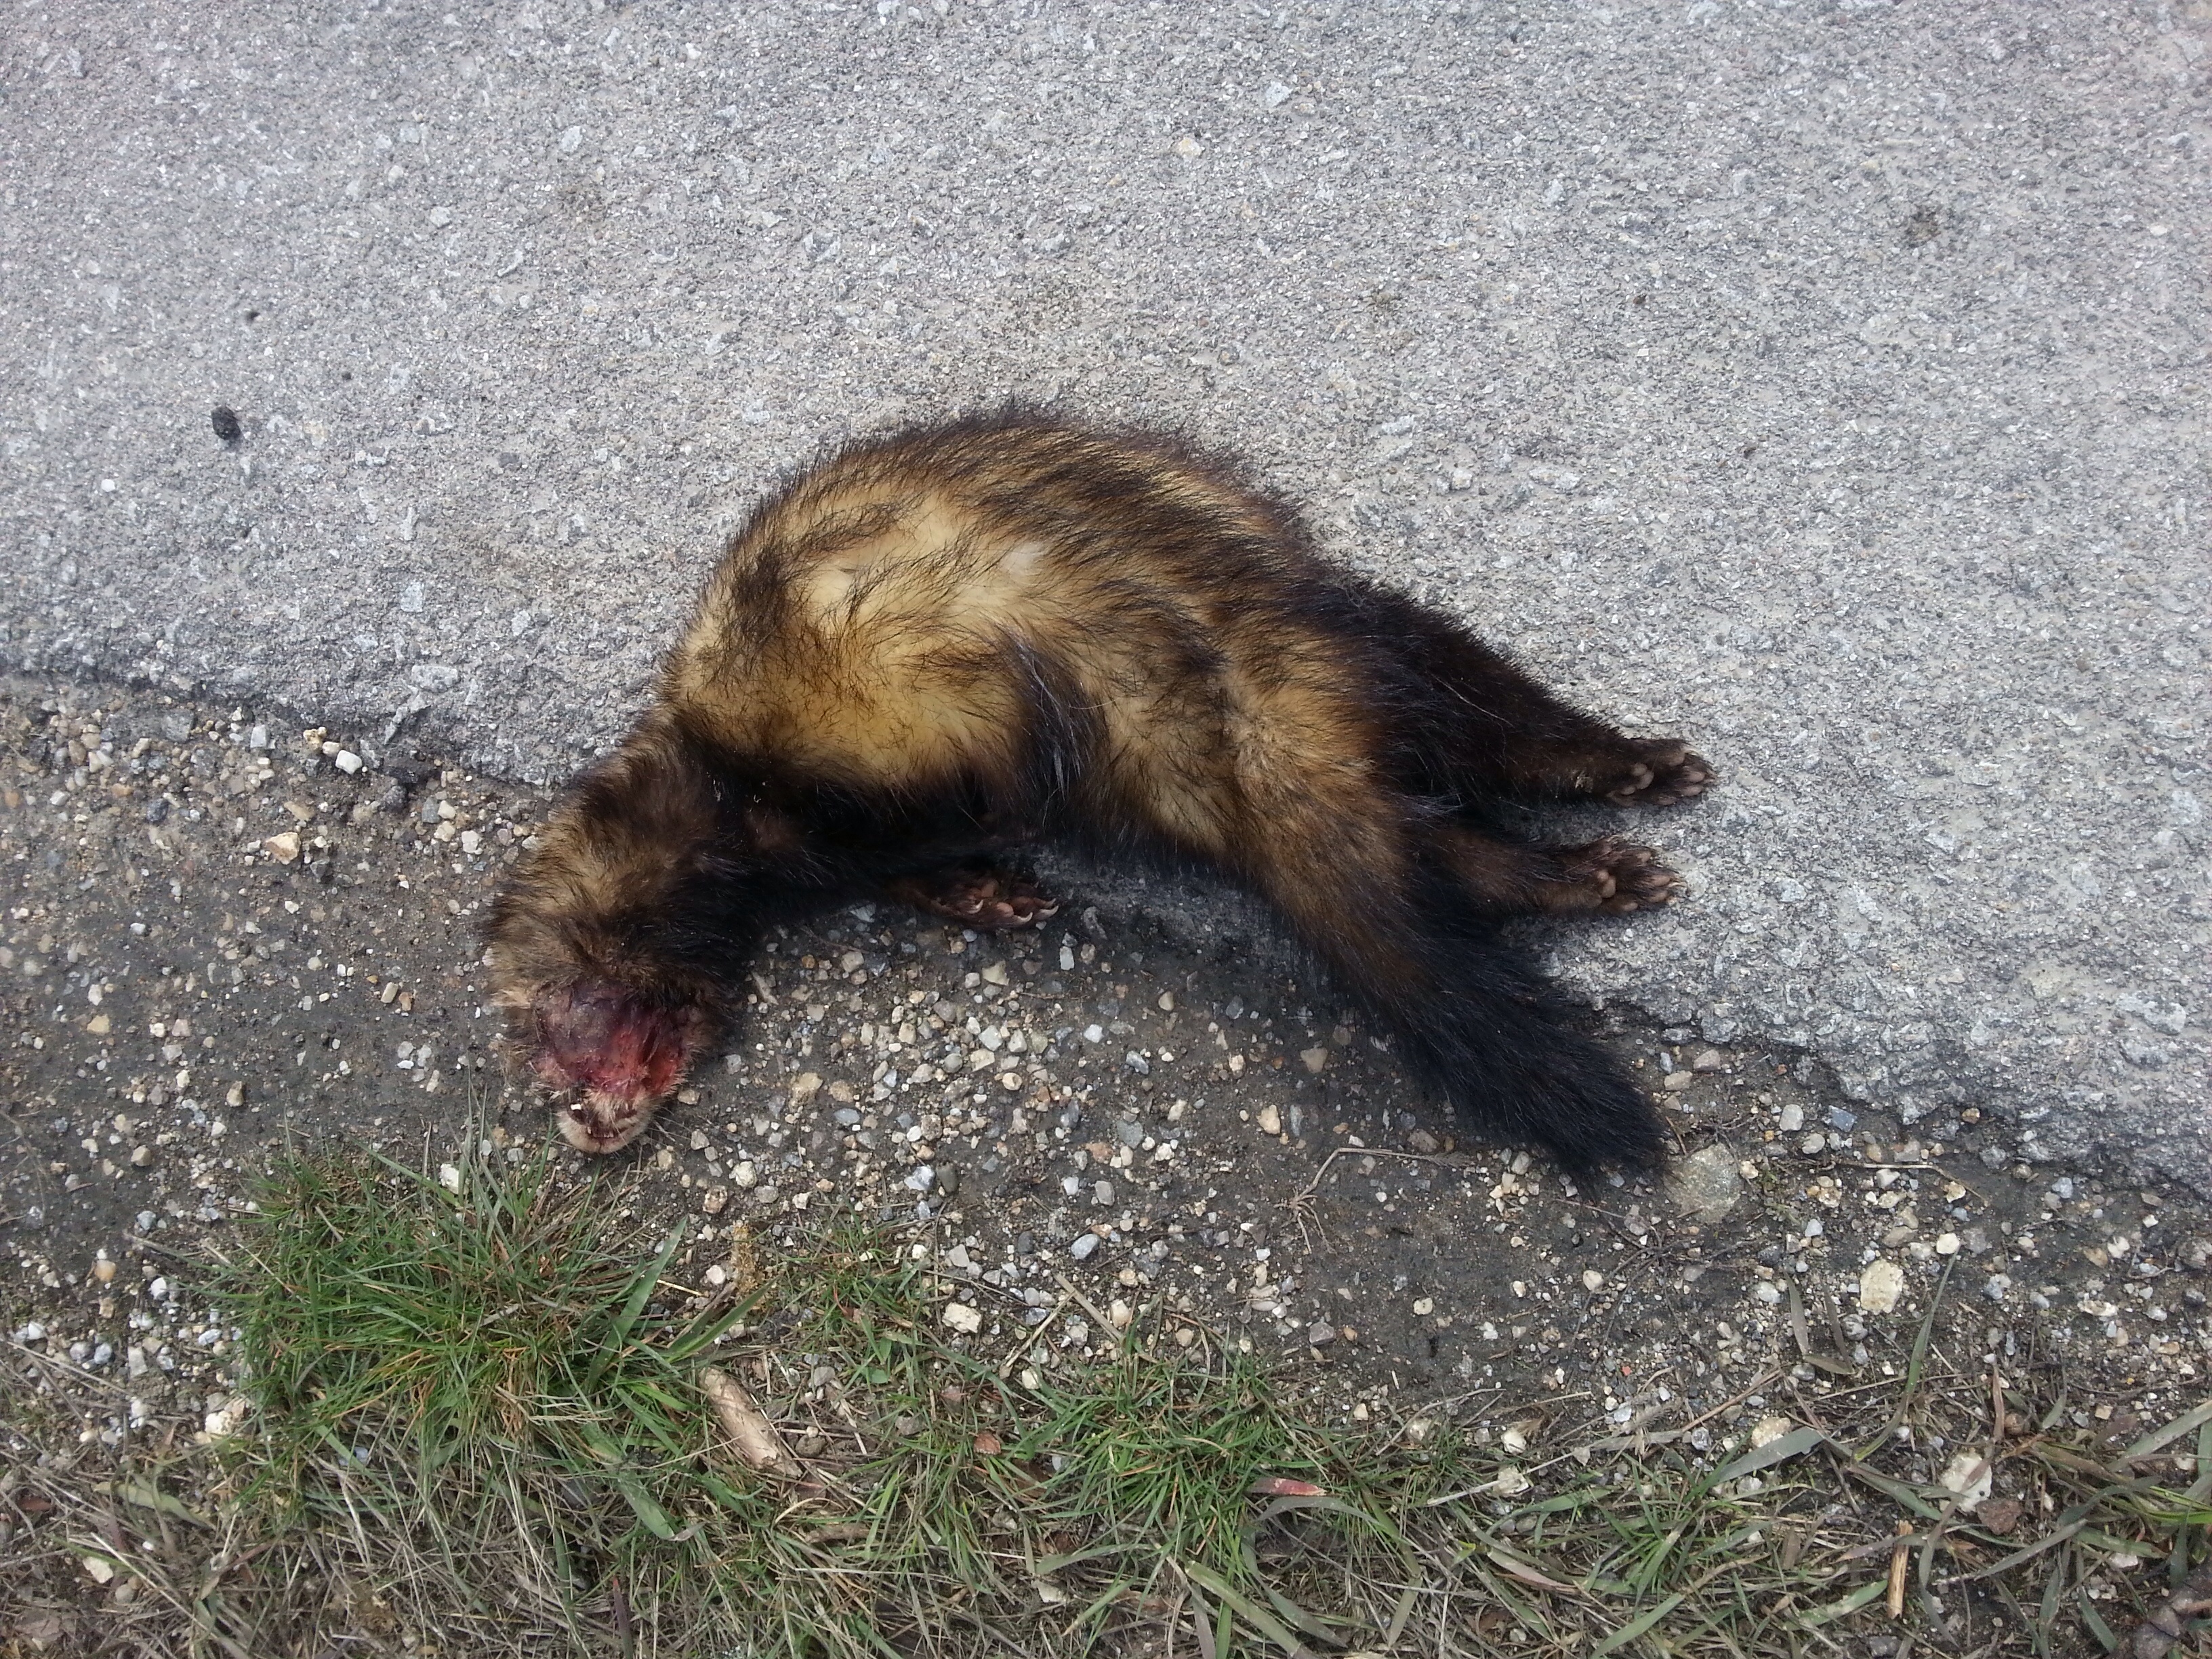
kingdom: Animalia
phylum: Chordata
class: Mammalia
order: Carnivora
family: Mustelidae
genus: Mustela
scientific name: Mustela putorius
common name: European polecat
